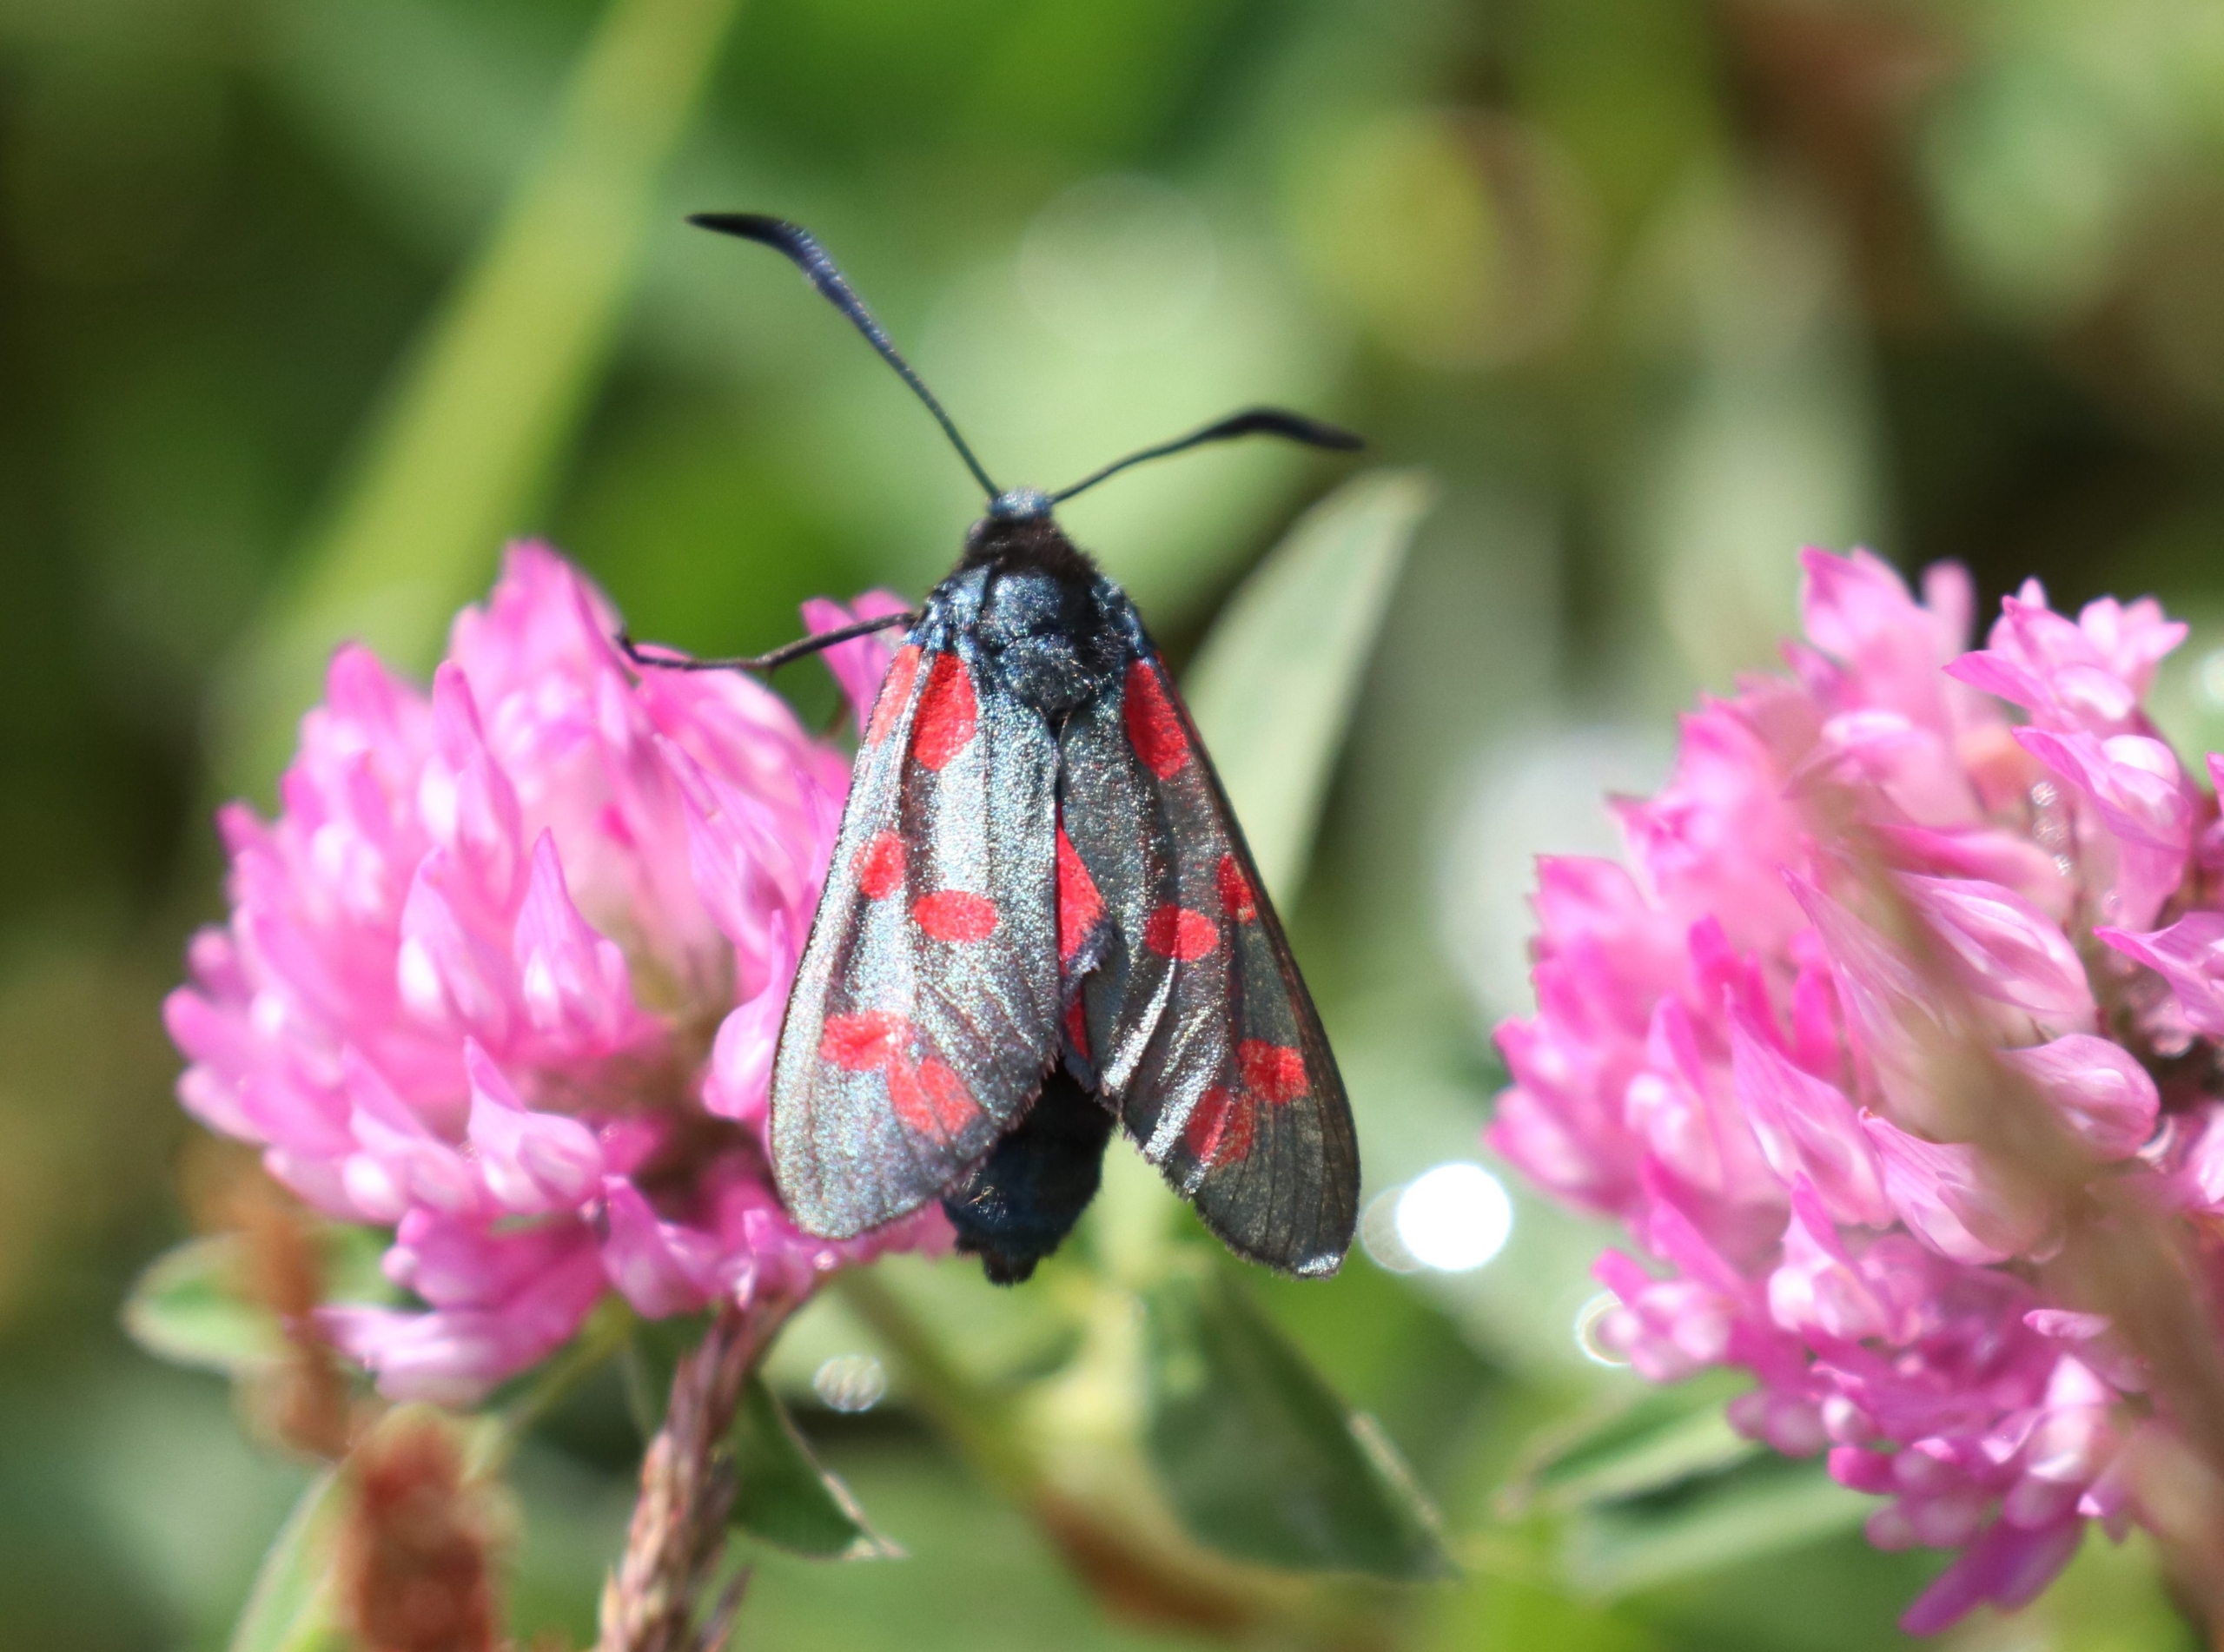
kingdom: Animalia
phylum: Arthropoda
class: Insecta
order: Lepidoptera
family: Zygaenidae
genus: Zygaena
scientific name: Zygaena filipendulae
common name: Seksplettet køllesværmer
